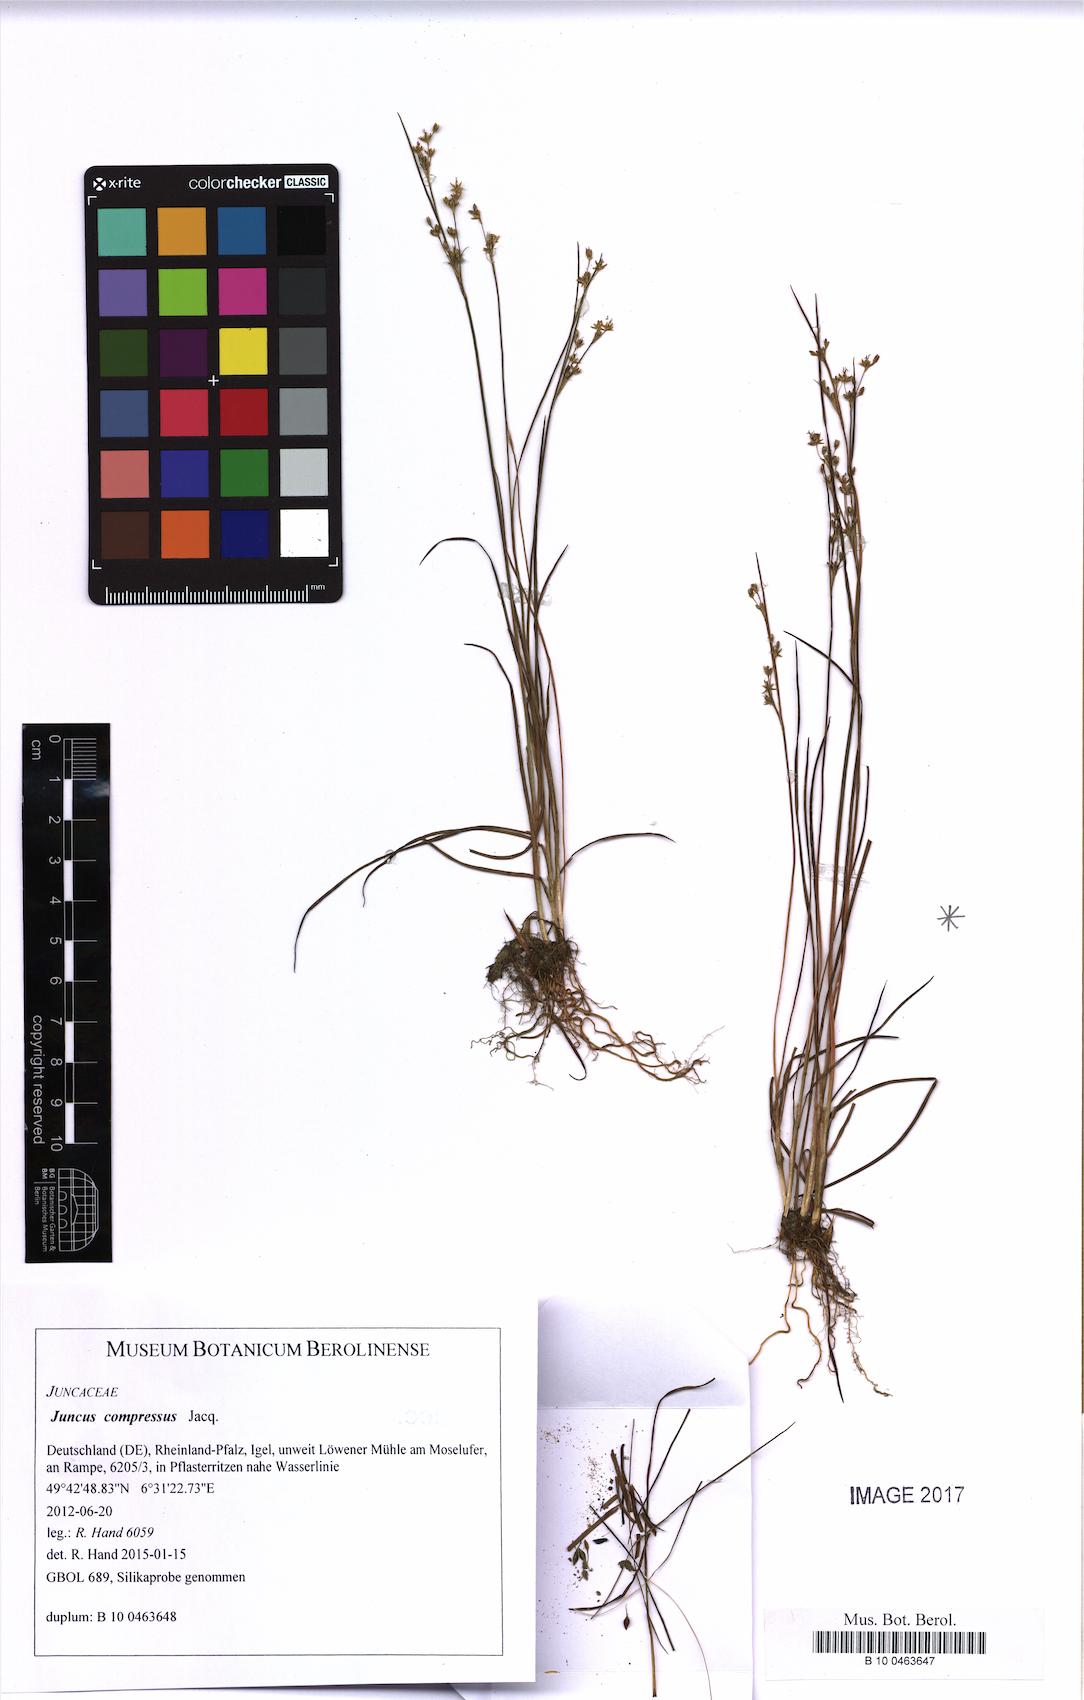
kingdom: Plantae
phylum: Tracheophyta
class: Liliopsida
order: Poales
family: Juncaceae
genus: Juncus
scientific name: Juncus compressus
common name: Round-fruited rush
